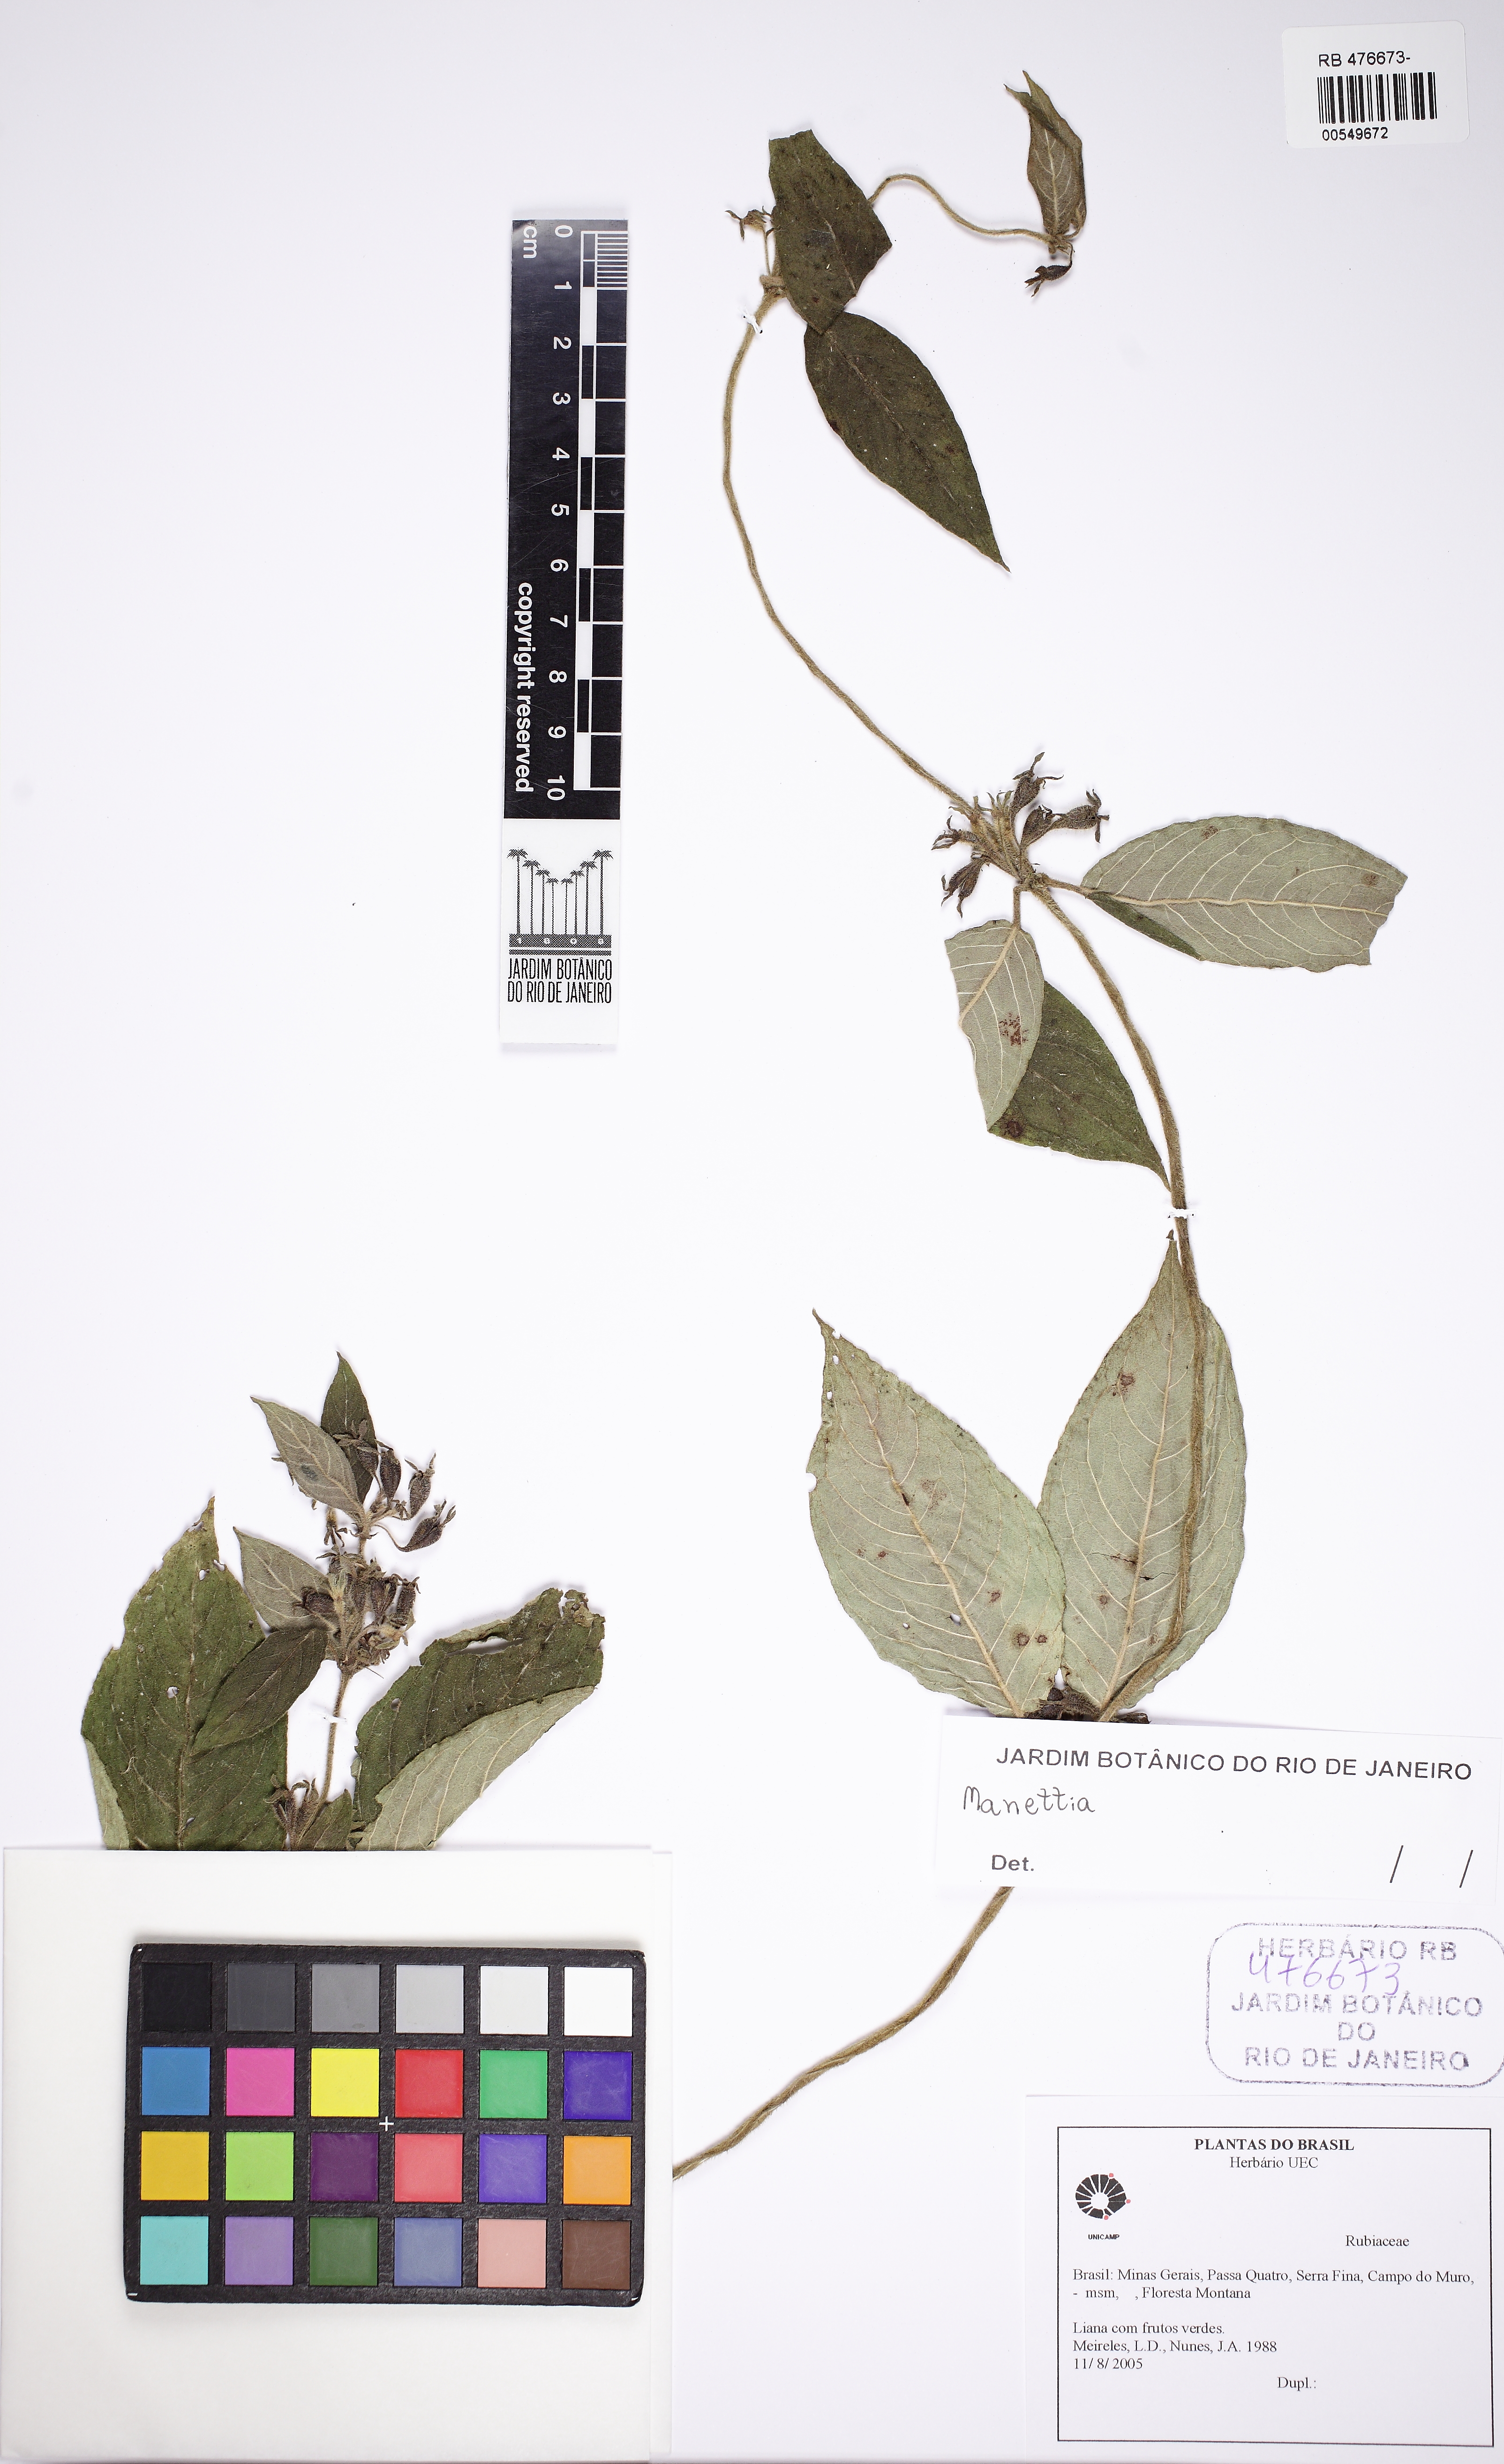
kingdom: Plantae
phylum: Tracheophyta
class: Magnoliopsida
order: Gentianales
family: Rubiaceae
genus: Manettia
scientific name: Manettia
